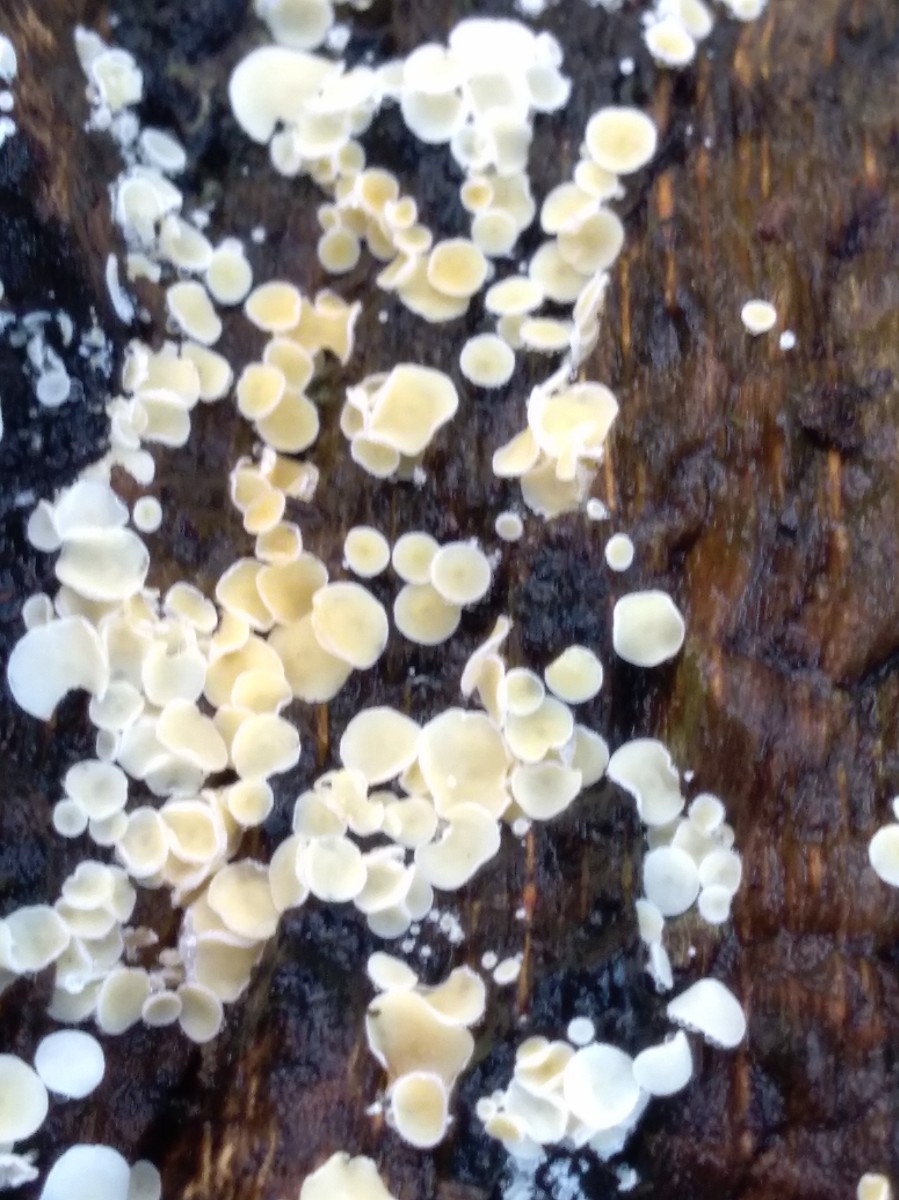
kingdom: Fungi
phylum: Ascomycota
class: Leotiomycetes
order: Helotiales
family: Lachnaceae
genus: Lachnum
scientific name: Lachnum
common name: frynseskive
